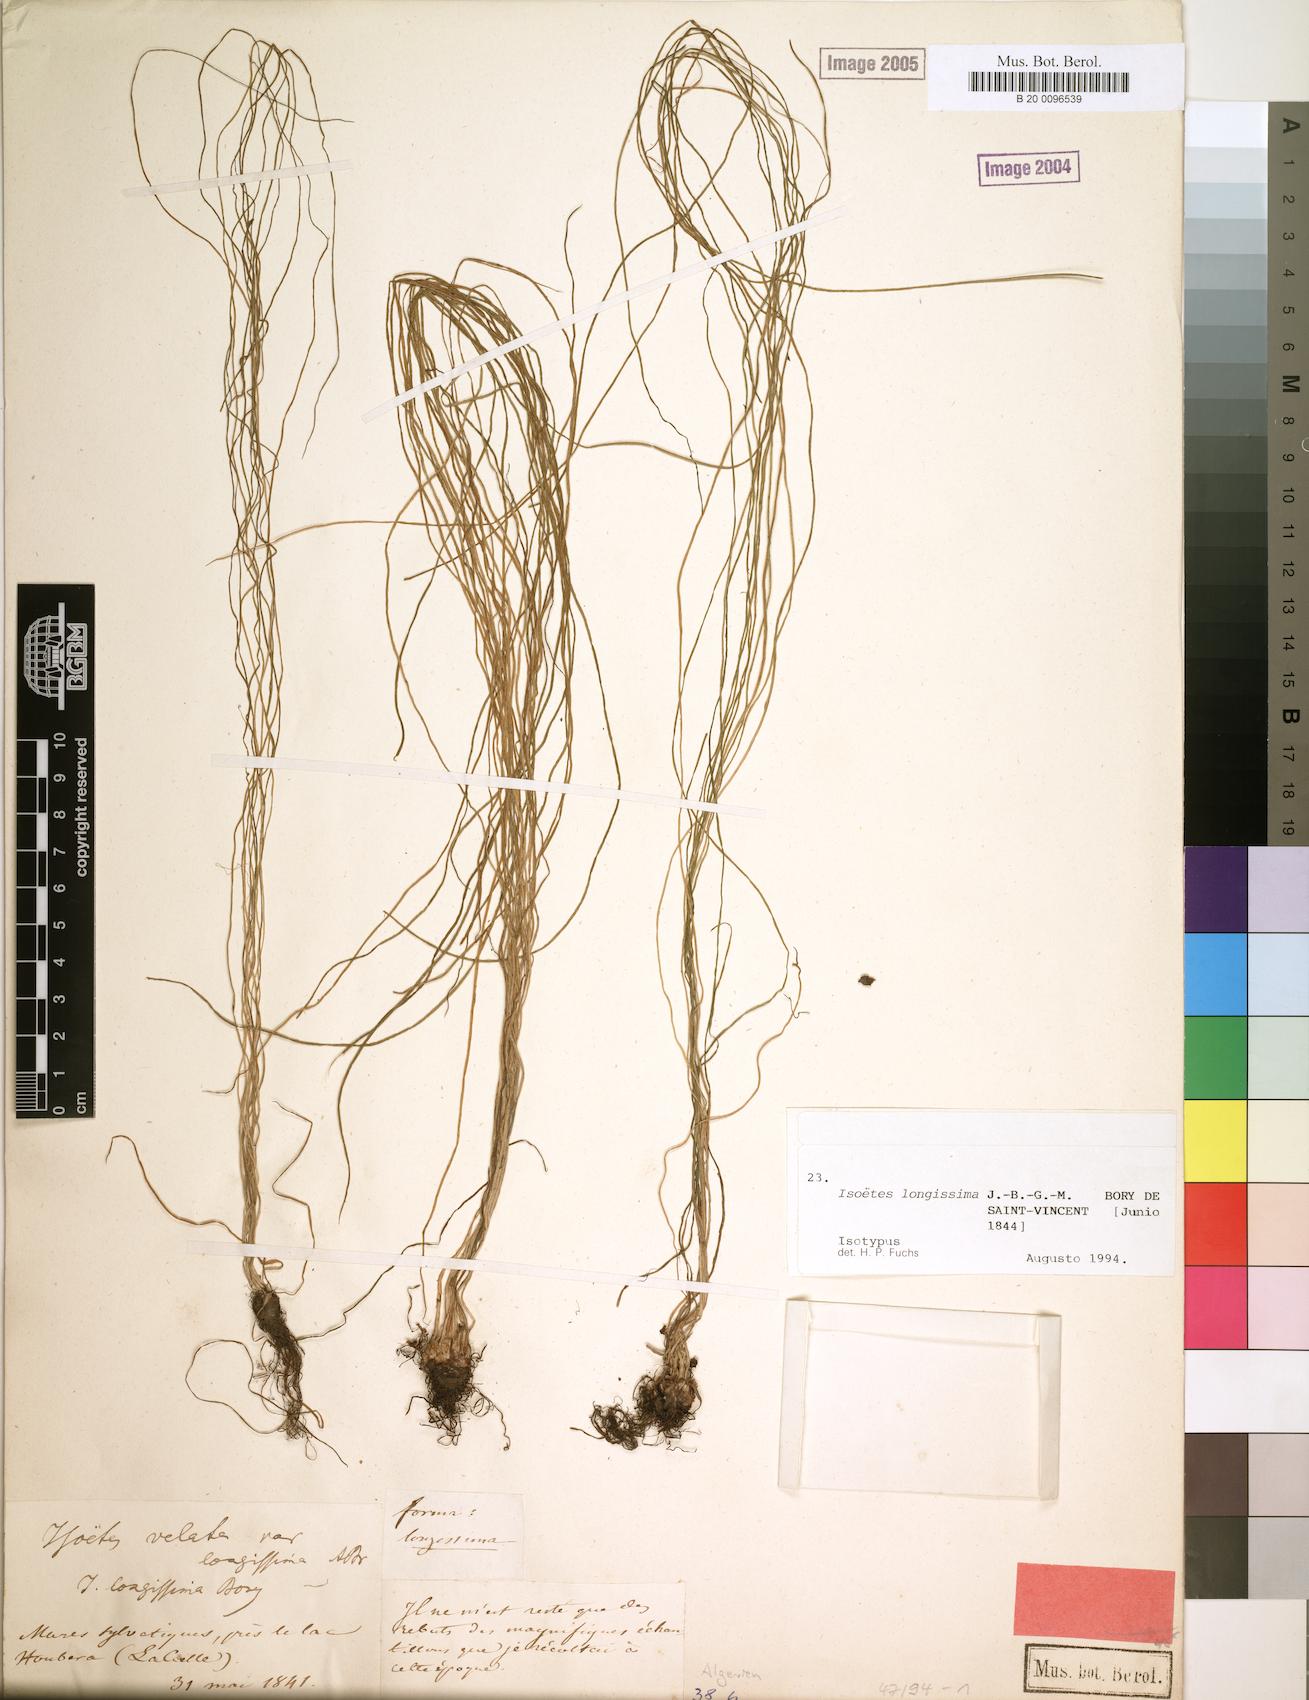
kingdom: Plantae
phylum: Tracheophyta
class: Lycopodiopsida
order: Isoetales
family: Isoetaceae
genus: Isoetes
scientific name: Isoetes longissima
